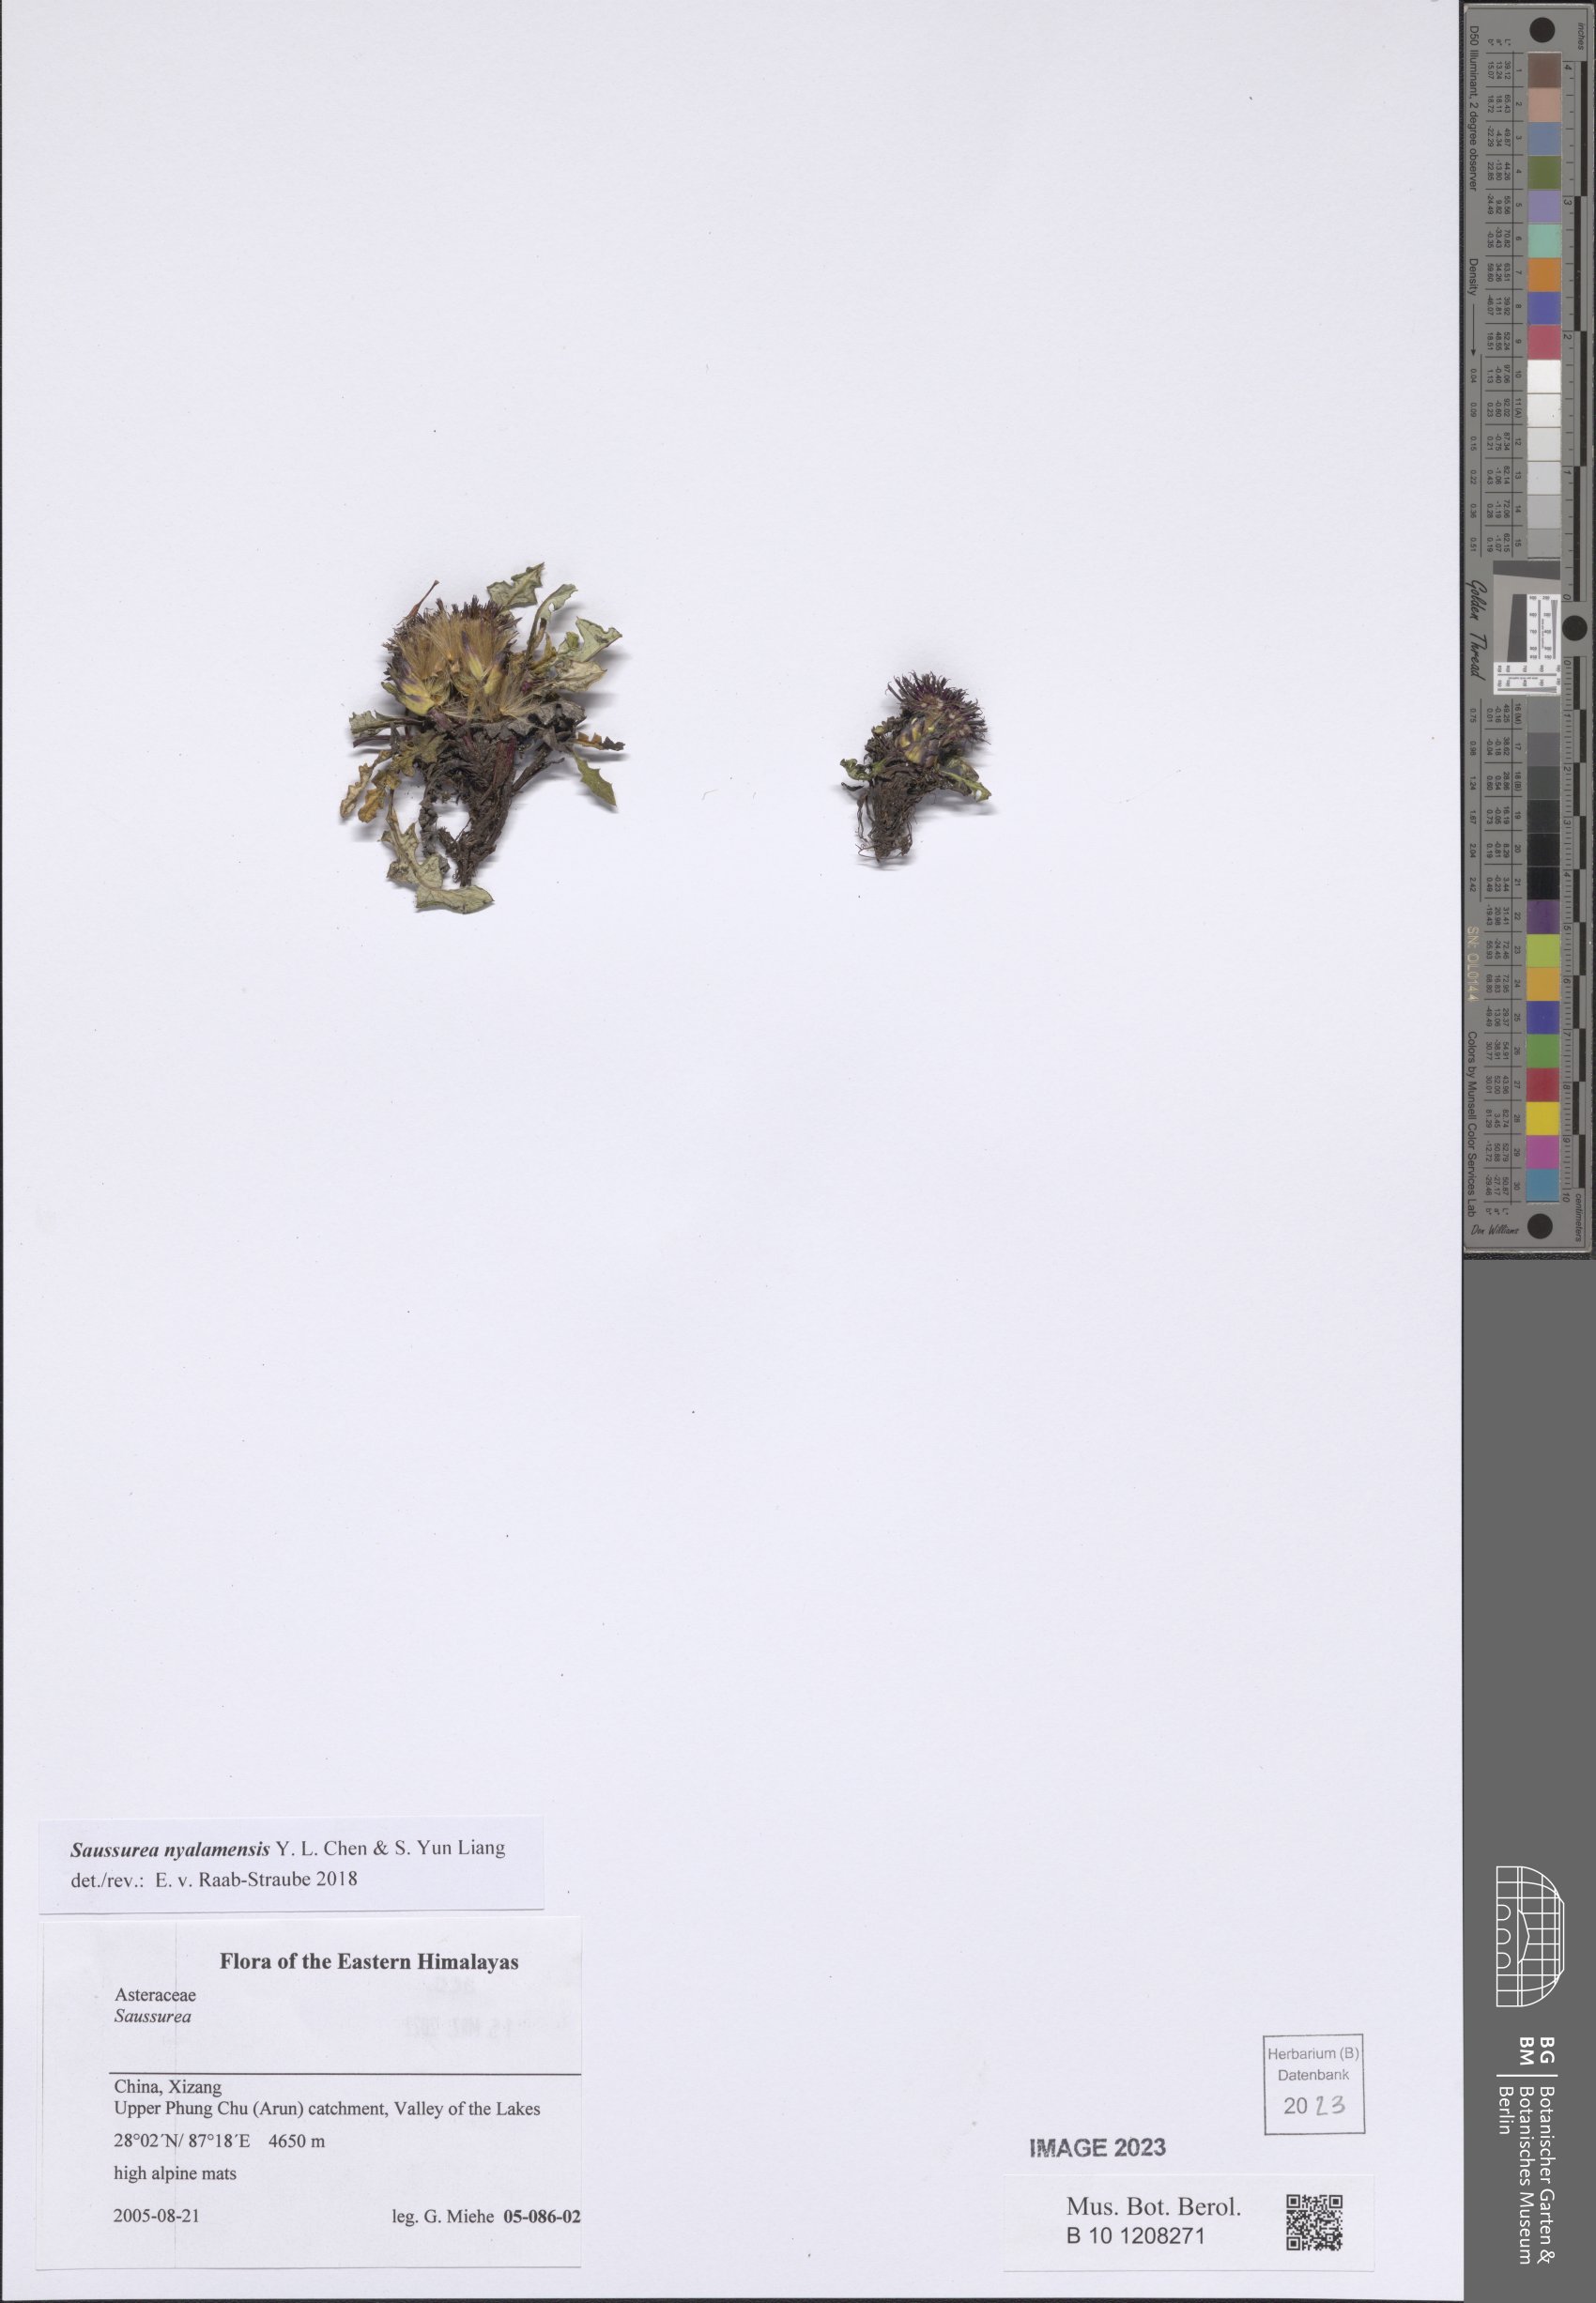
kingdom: Plantae
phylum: Tracheophyta
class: Magnoliopsida
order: Asterales
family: Asteraceae
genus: Saussurea
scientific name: Saussurea nyalamensis
